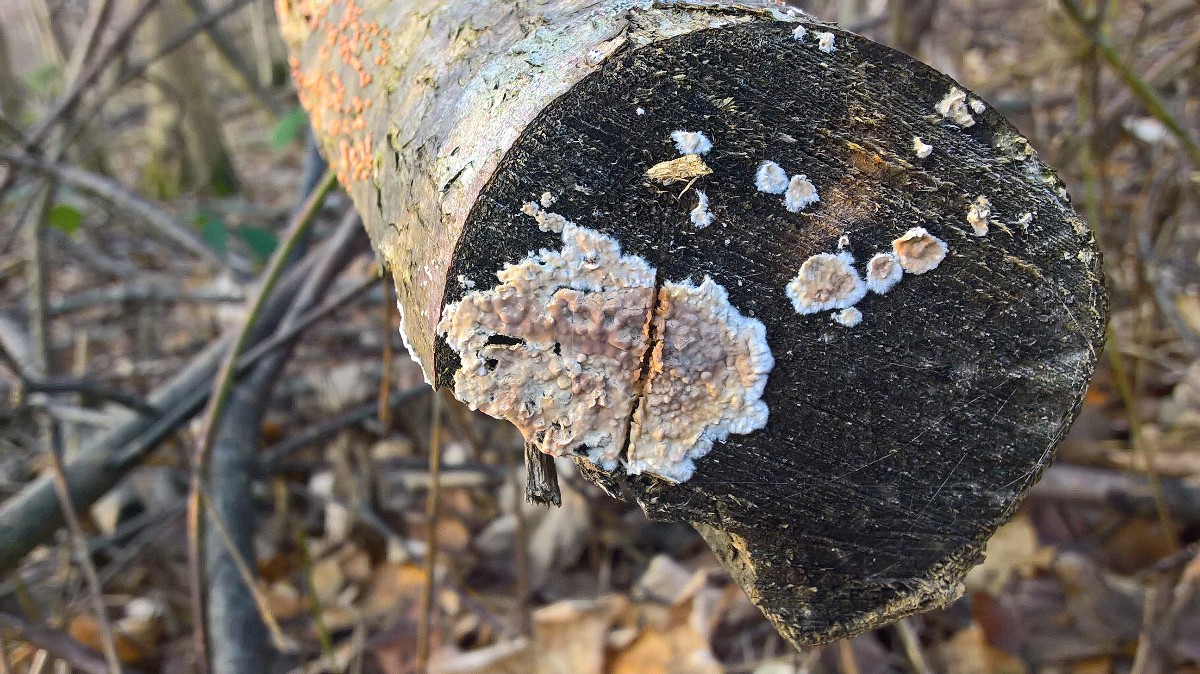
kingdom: Fungi
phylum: Basidiomycota
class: Agaricomycetes
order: Agaricales
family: Physalacriaceae
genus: Cylindrobasidium
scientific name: Cylindrobasidium evolvens
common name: sprækkehinde
